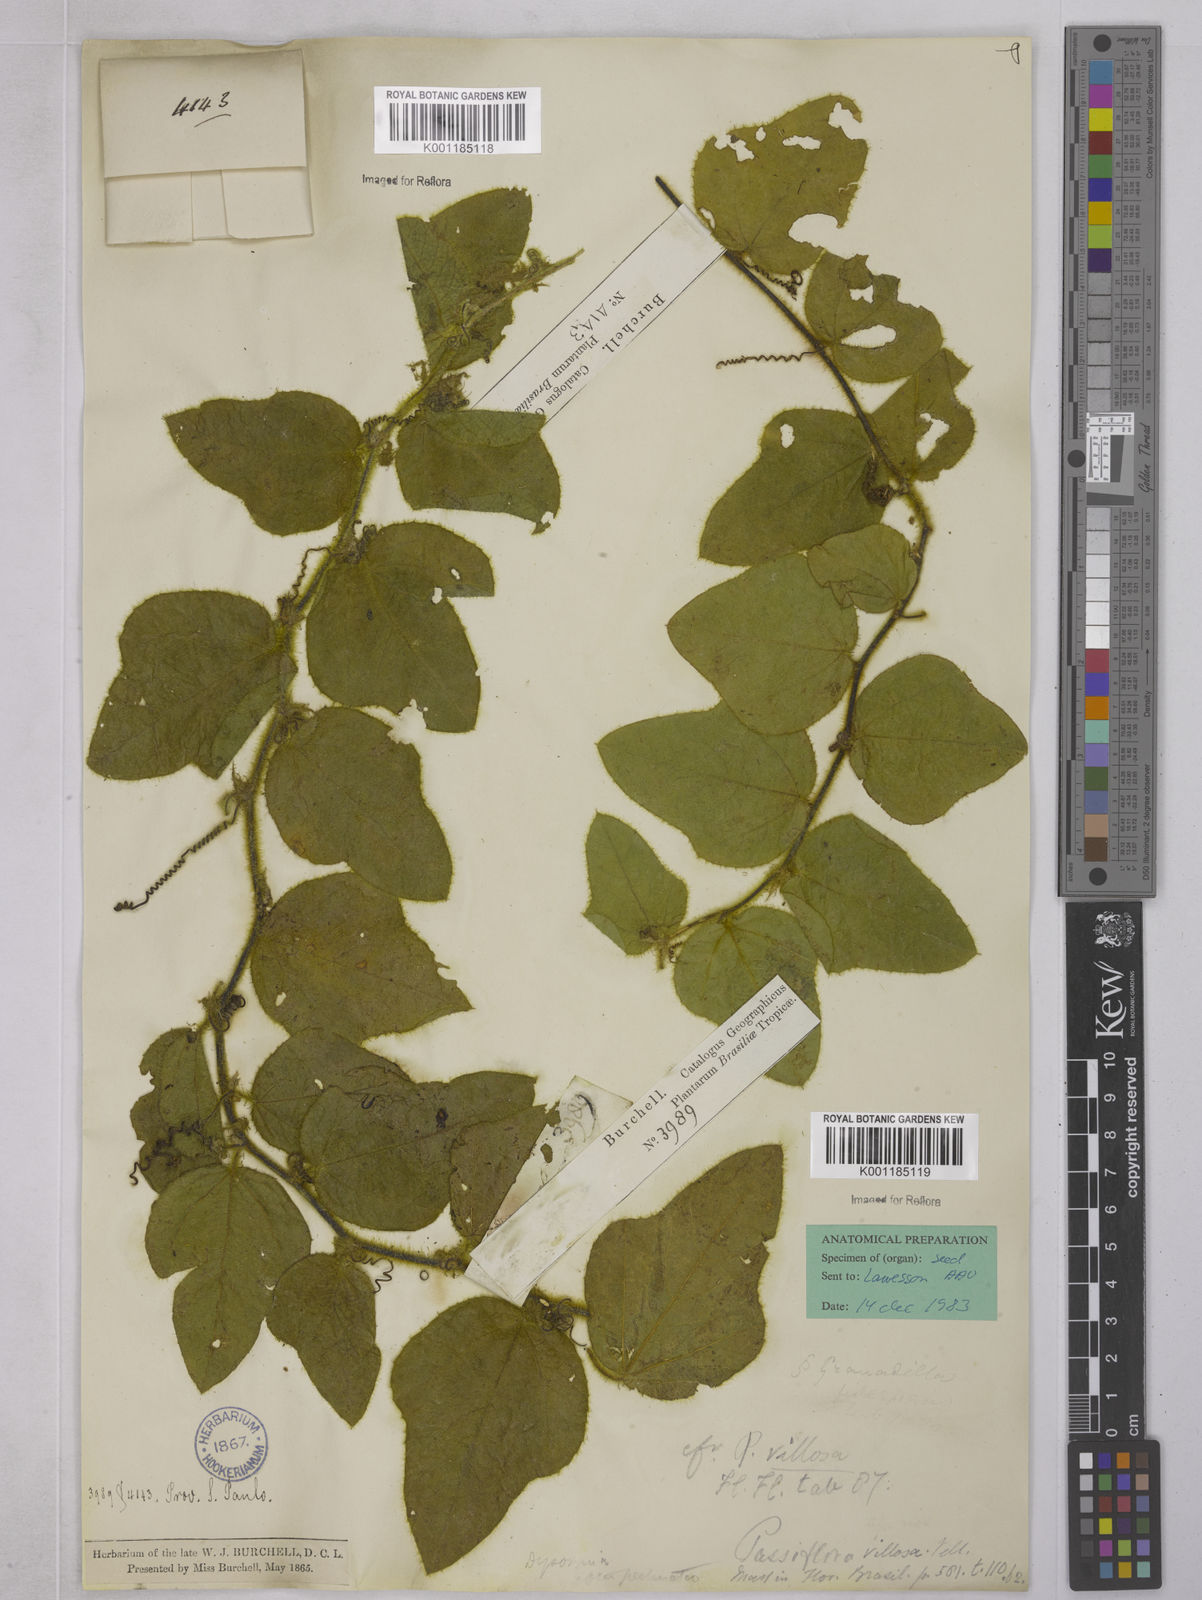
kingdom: Plantae
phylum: Tracheophyta
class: Magnoliopsida
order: Malpighiales
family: Passifloraceae
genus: Passiflora
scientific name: Passiflora villosa
